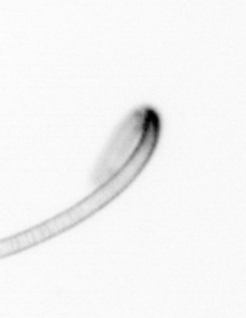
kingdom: Chromista
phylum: Ochrophyta
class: Bacillariophyceae
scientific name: Bacillariophyceae
